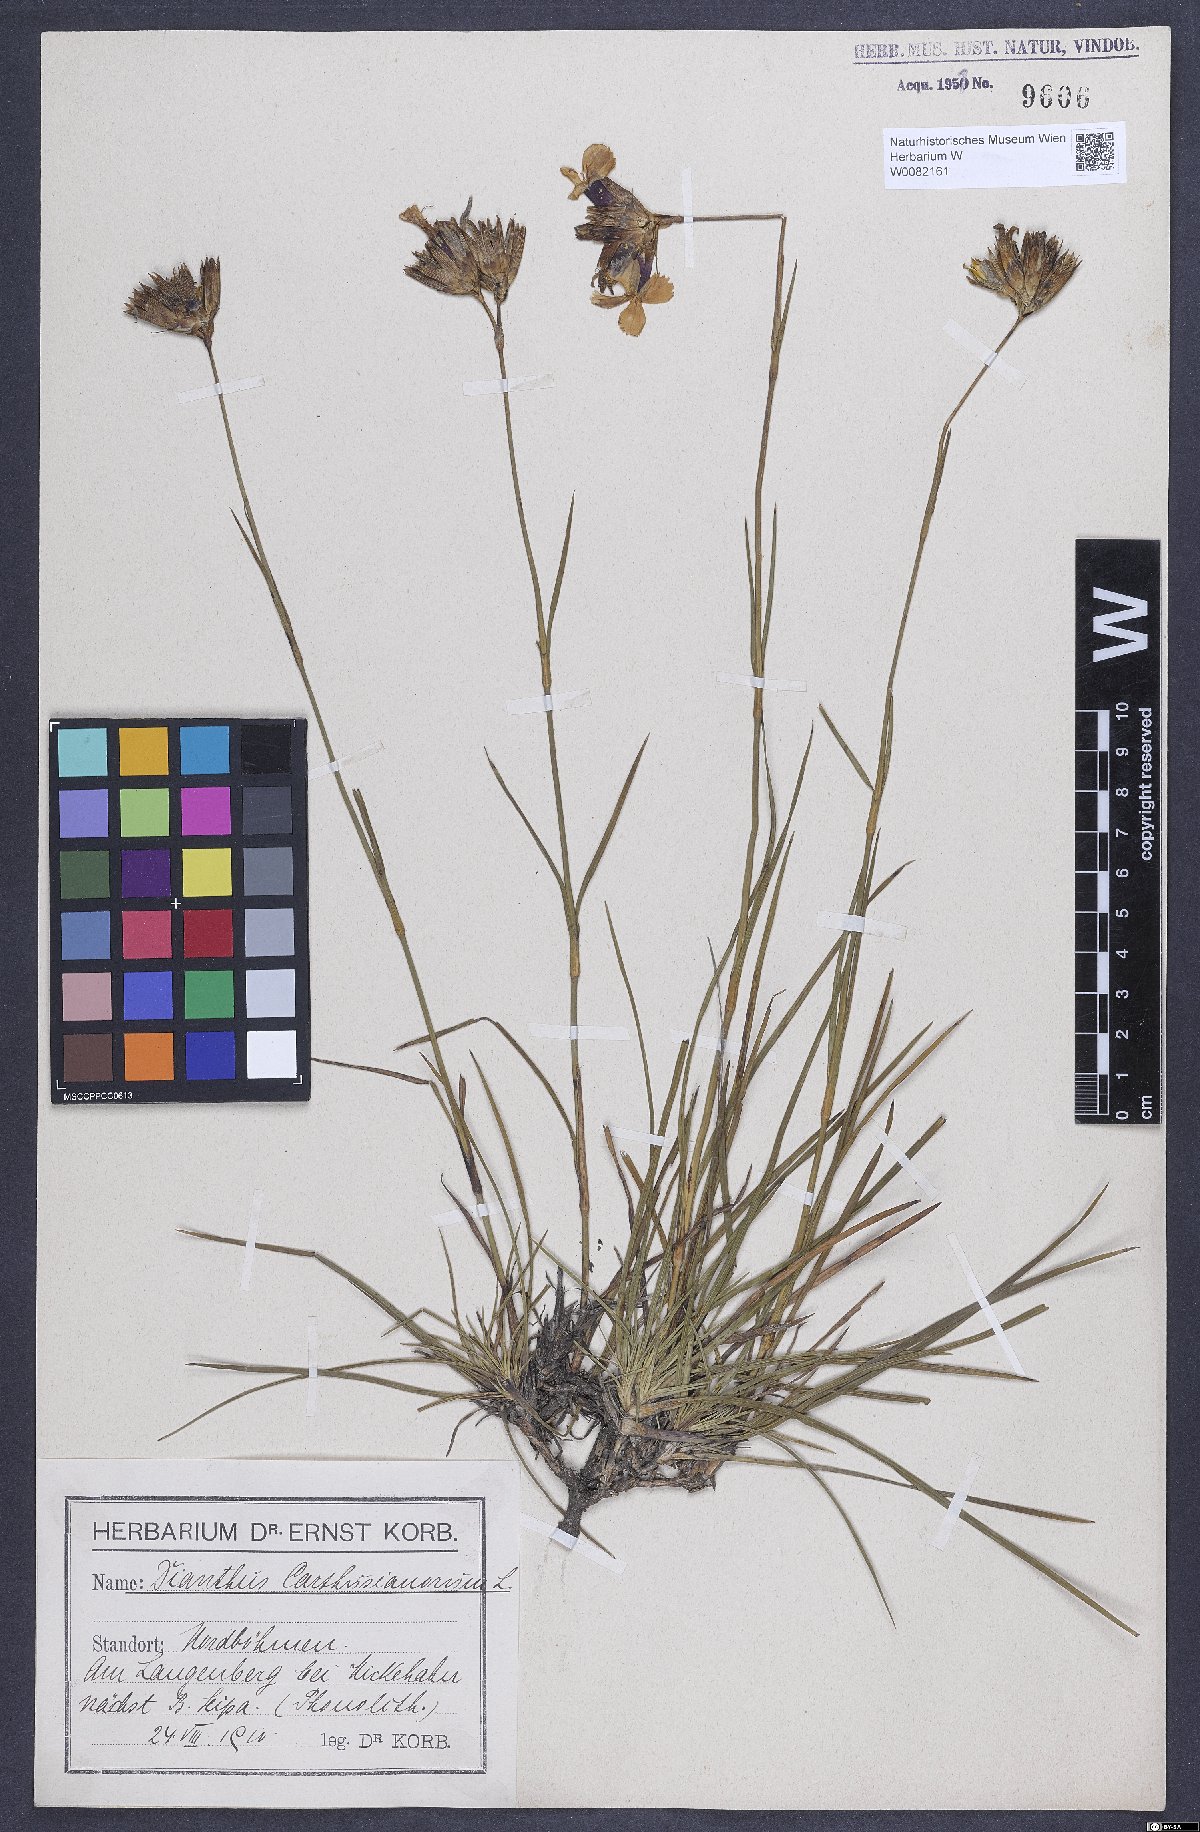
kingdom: Plantae
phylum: Tracheophyta
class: Magnoliopsida
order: Caryophyllales
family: Caryophyllaceae
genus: Dianthus
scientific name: Dianthus carthusianorum
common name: Carthusian pink
